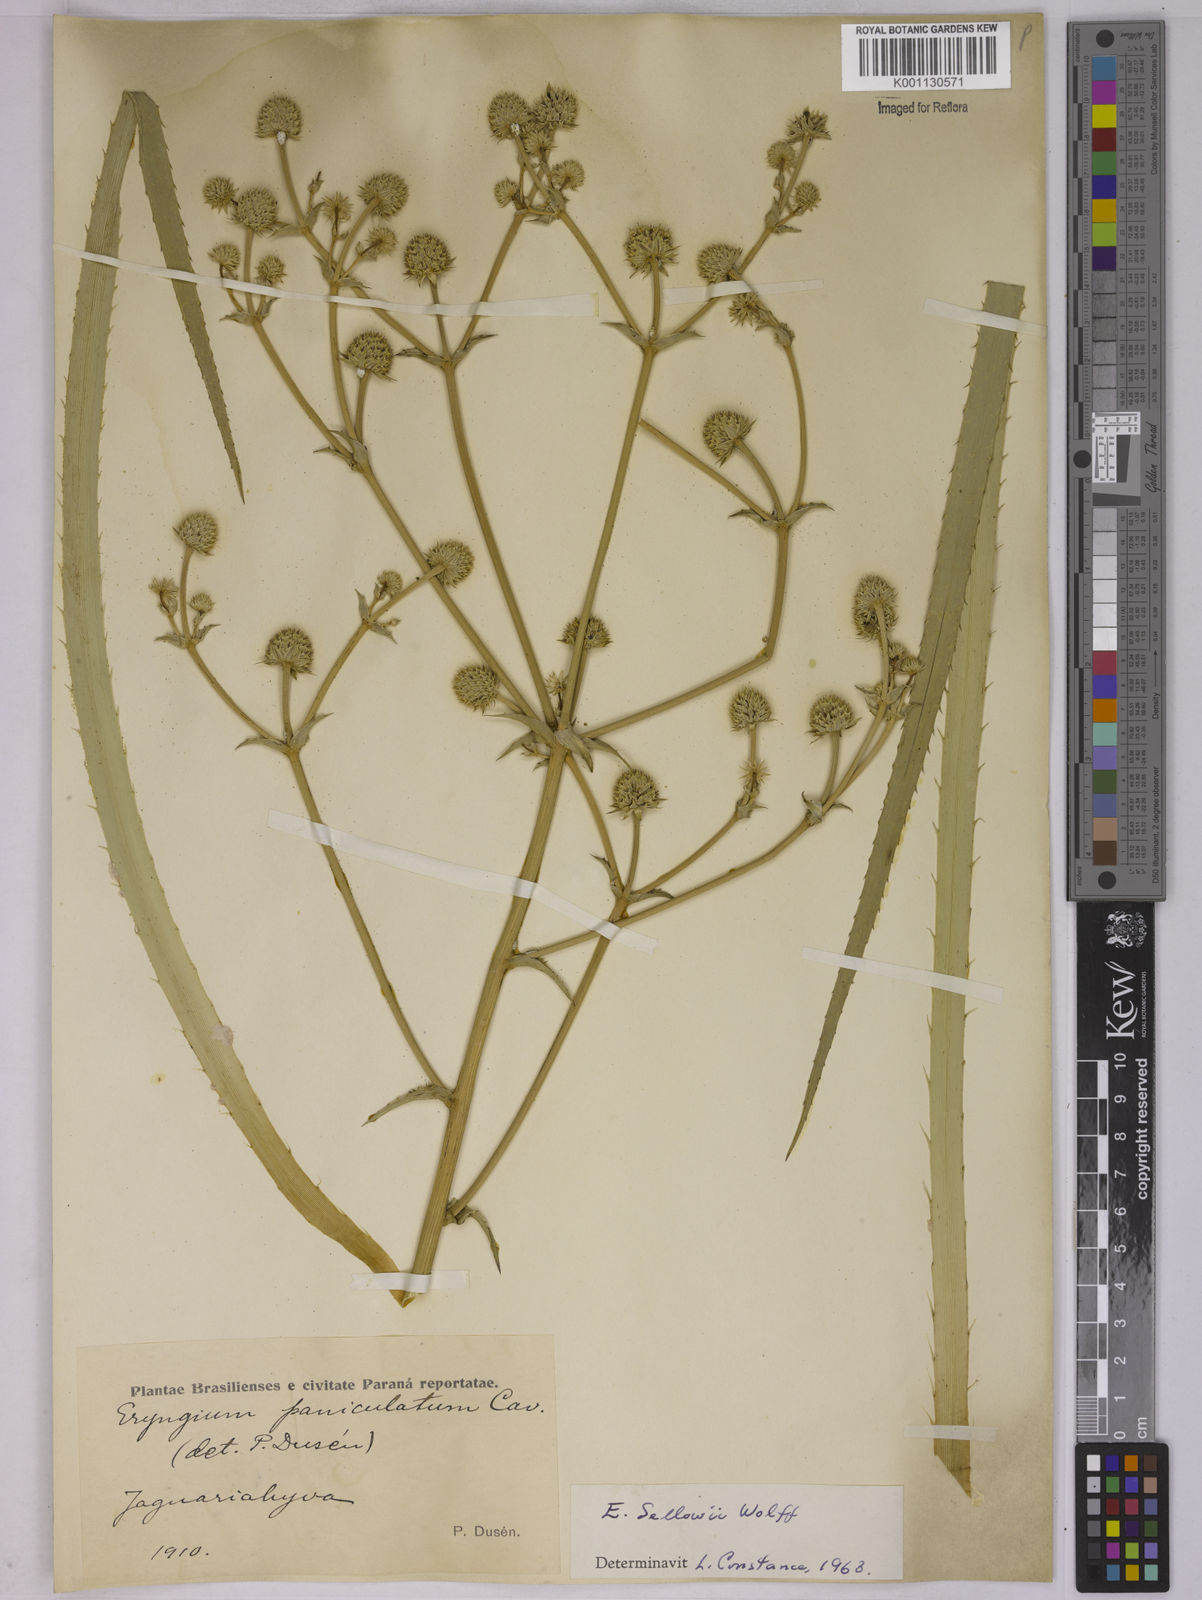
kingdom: Plantae
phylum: Tracheophyta
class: Magnoliopsida
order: Apiales
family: Apiaceae
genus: Eryngium
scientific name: Eryngium sellowii
